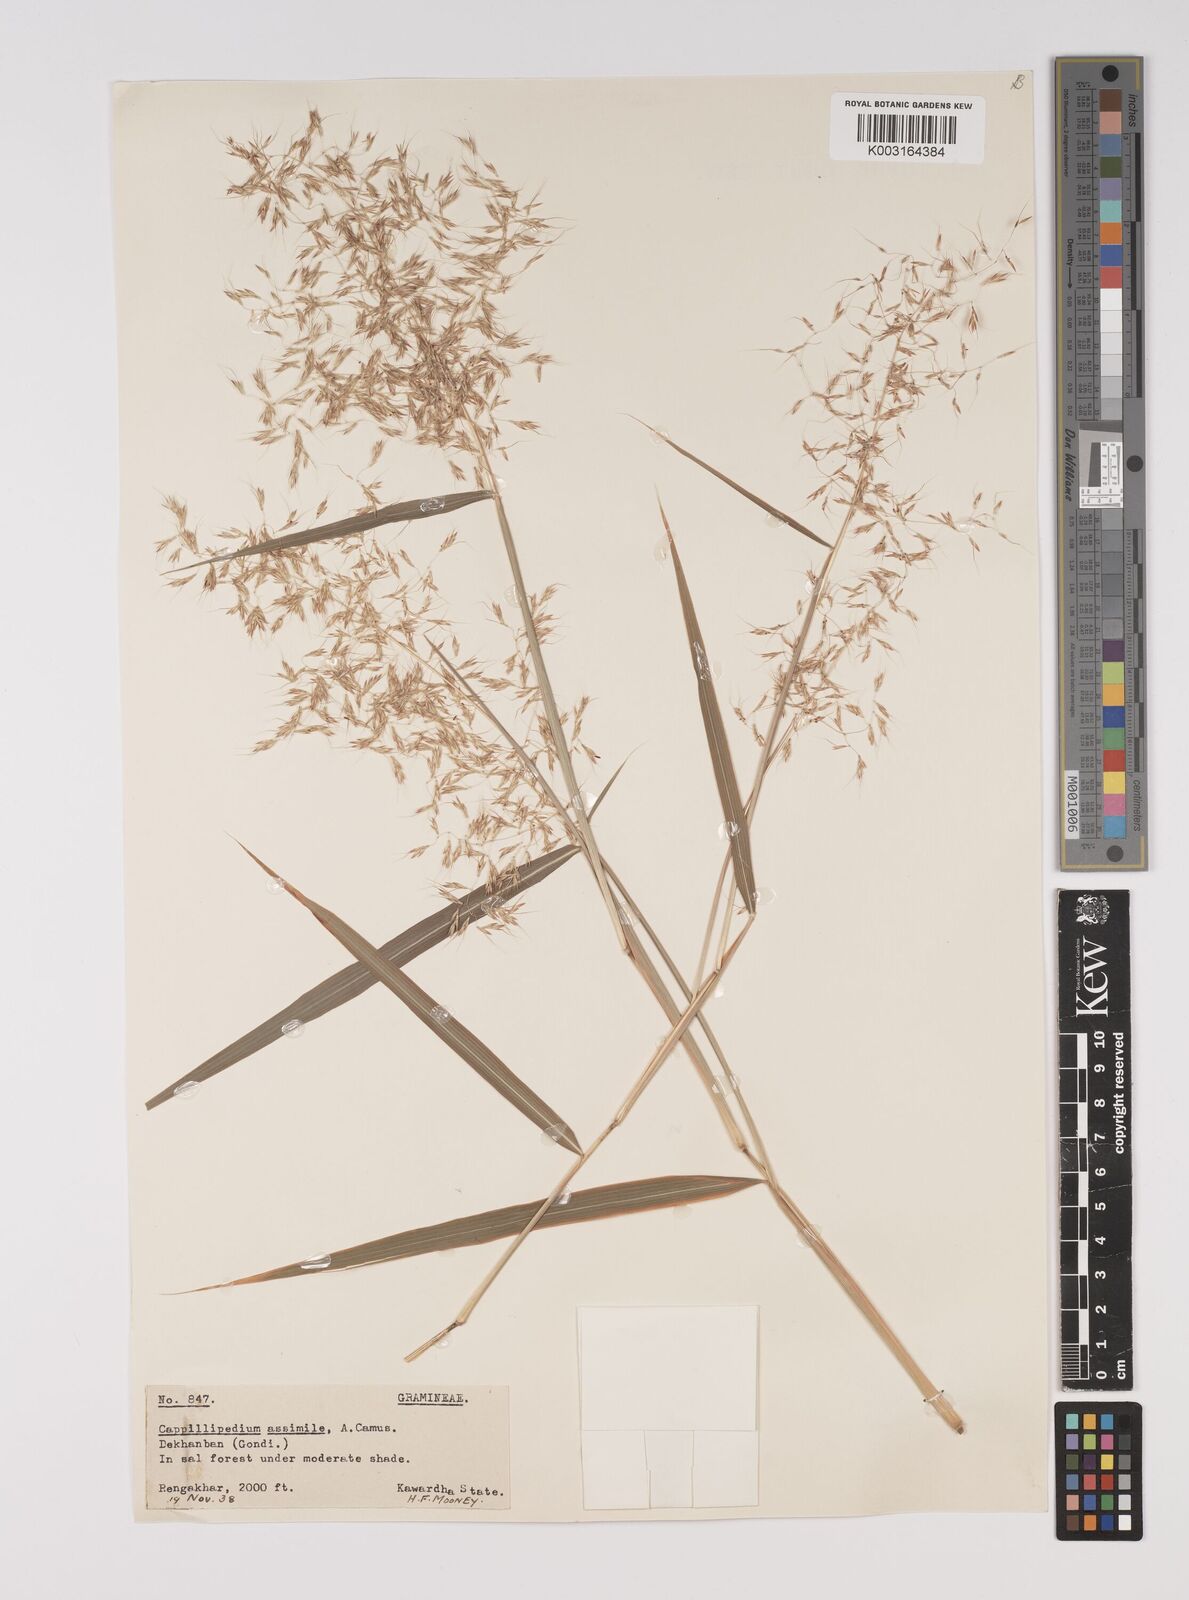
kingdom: Plantae
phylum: Tracheophyta
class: Liliopsida
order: Poales
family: Poaceae
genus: Capillipedium
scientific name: Capillipedium assimile
